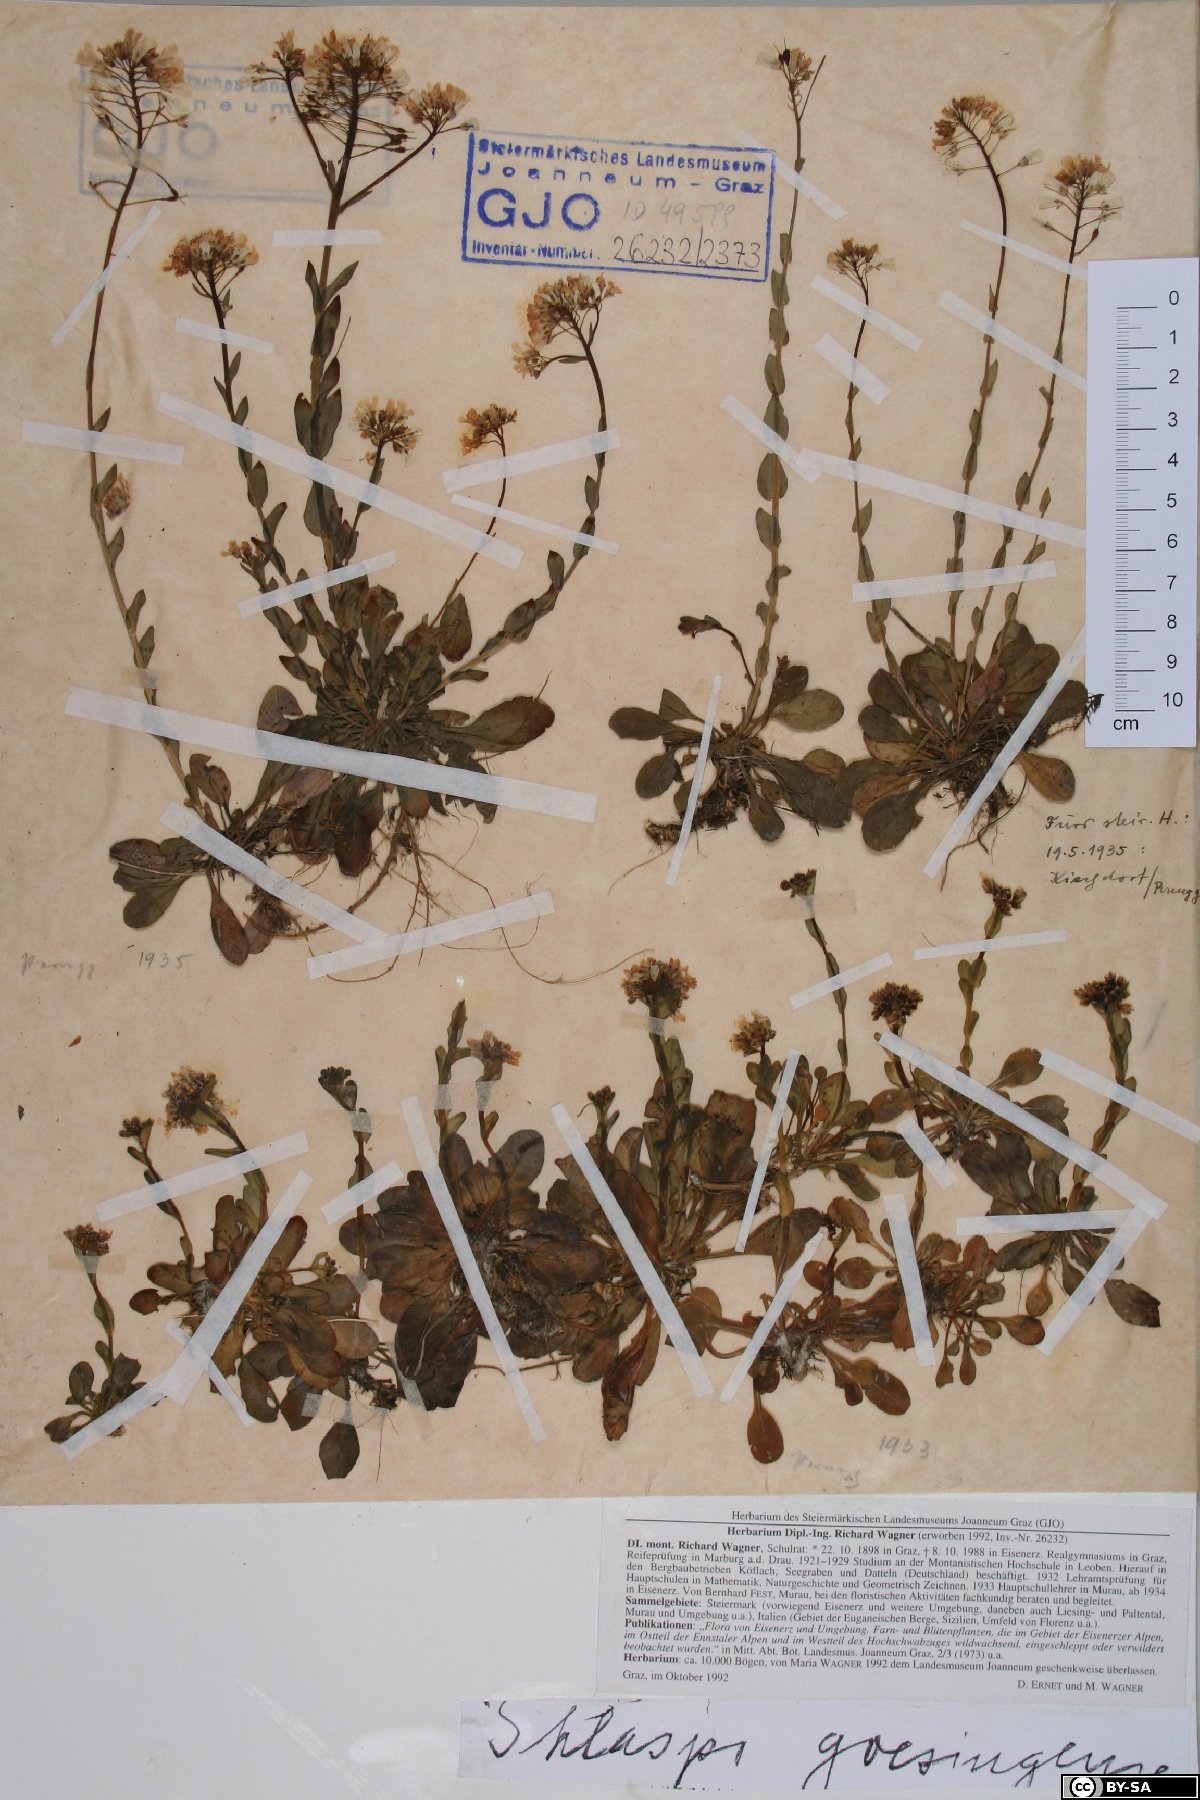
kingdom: Plantae
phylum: Tracheophyta
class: Magnoliopsida
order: Brassicales
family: Brassicaceae
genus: Noccaea
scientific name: Noccaea goesingensis
